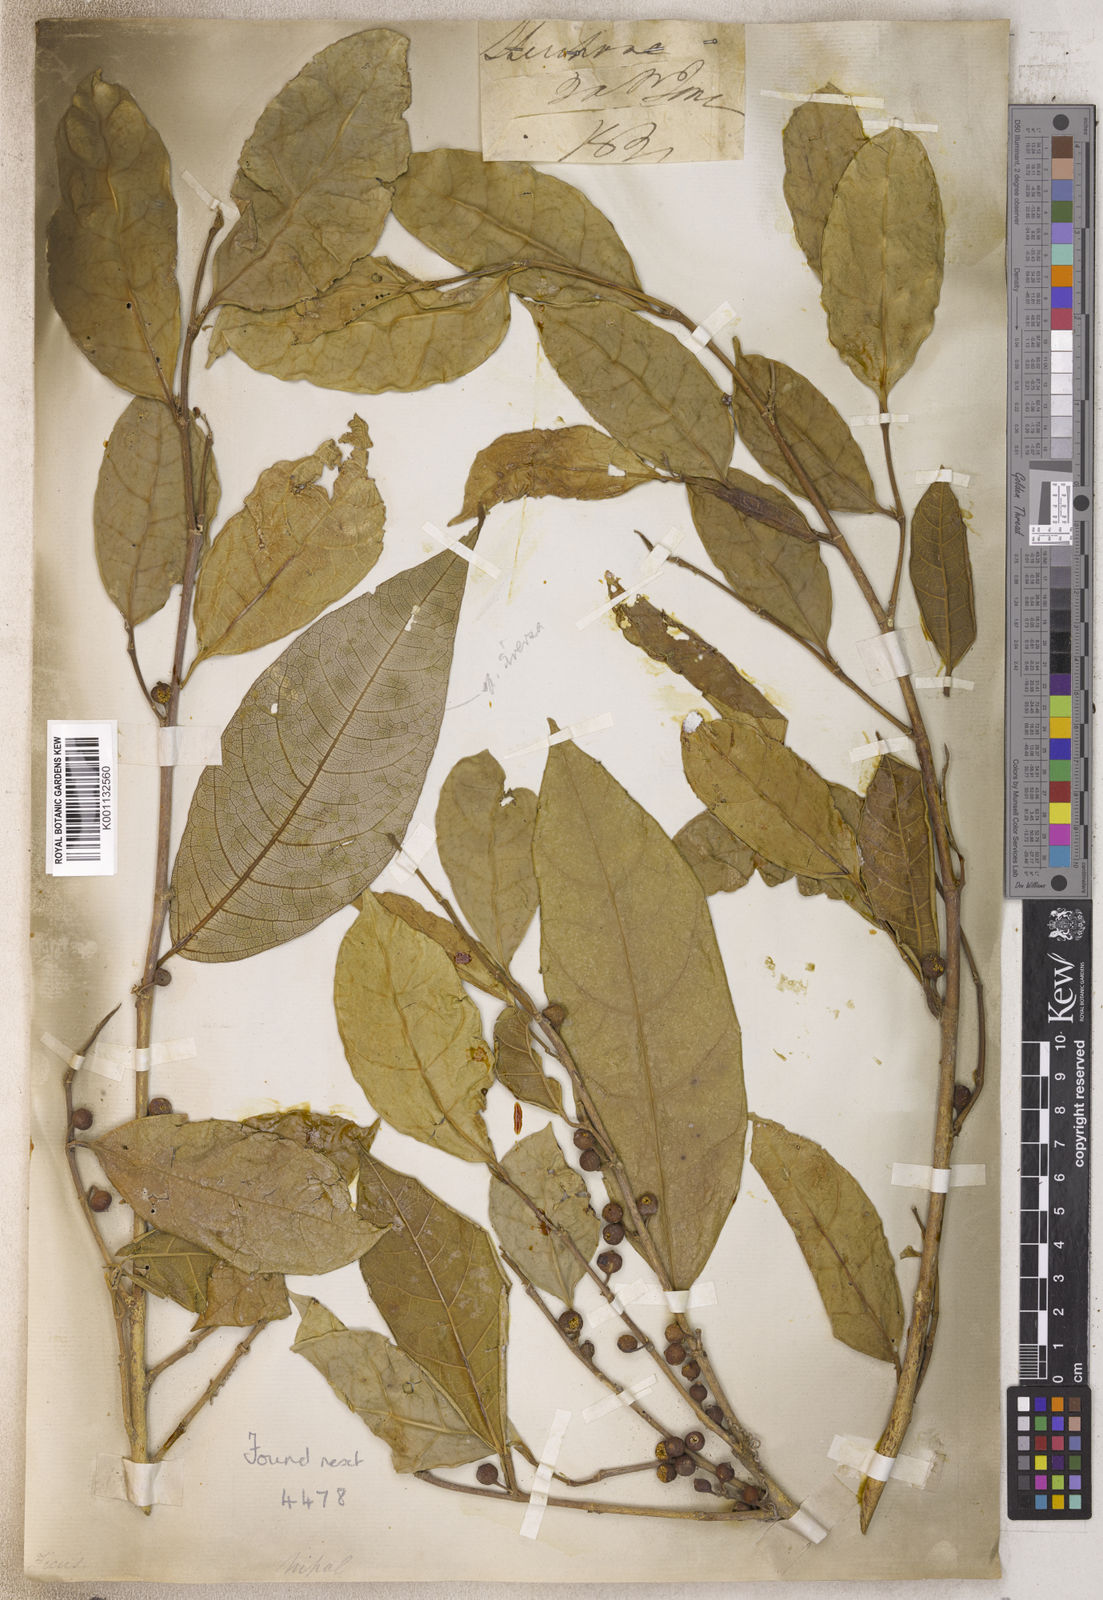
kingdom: Plantae
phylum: Tracheophyta
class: Magnoliopsida
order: Rosales
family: Moraceae
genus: Ficus
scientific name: Ficus
